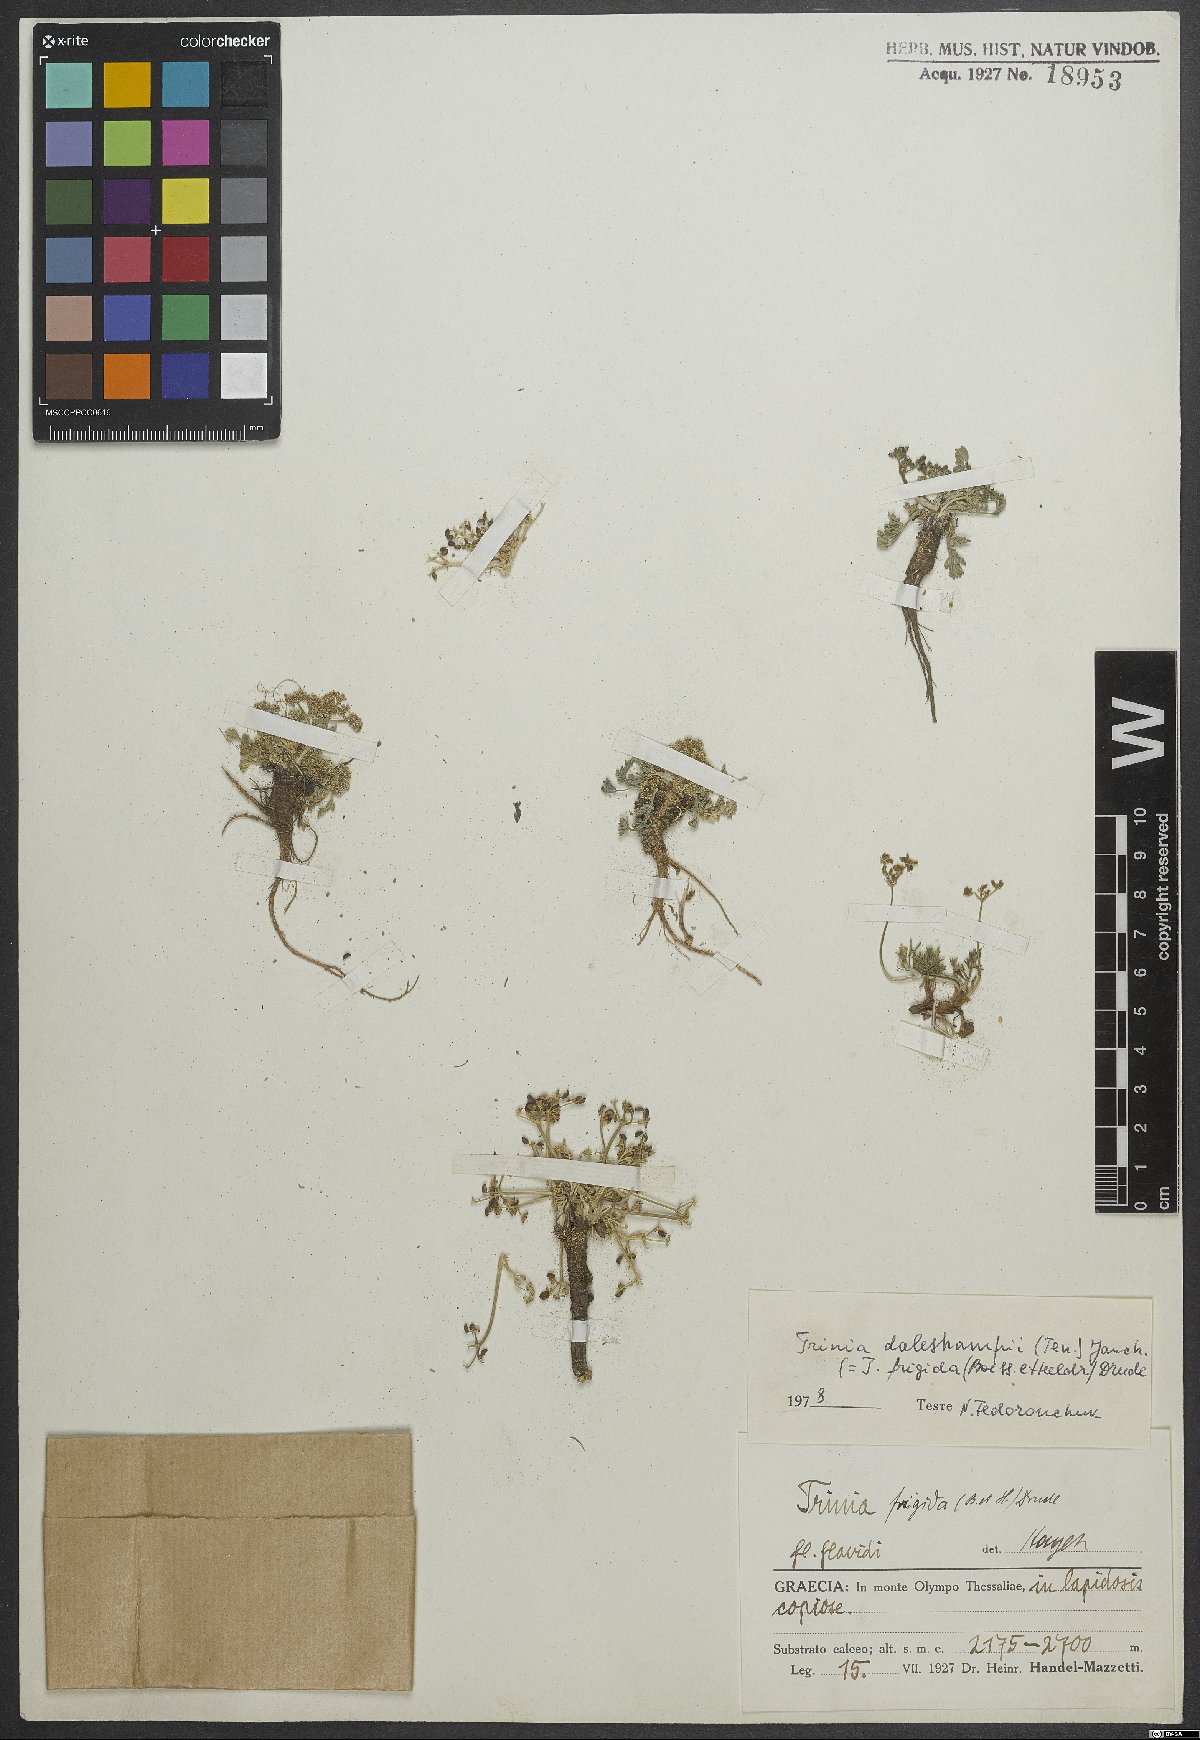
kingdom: Plantae
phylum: Tracheophyta
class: Magnoliopsida
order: Apiales
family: Apiaceae
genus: Trinia
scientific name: Trinia dalechampii
